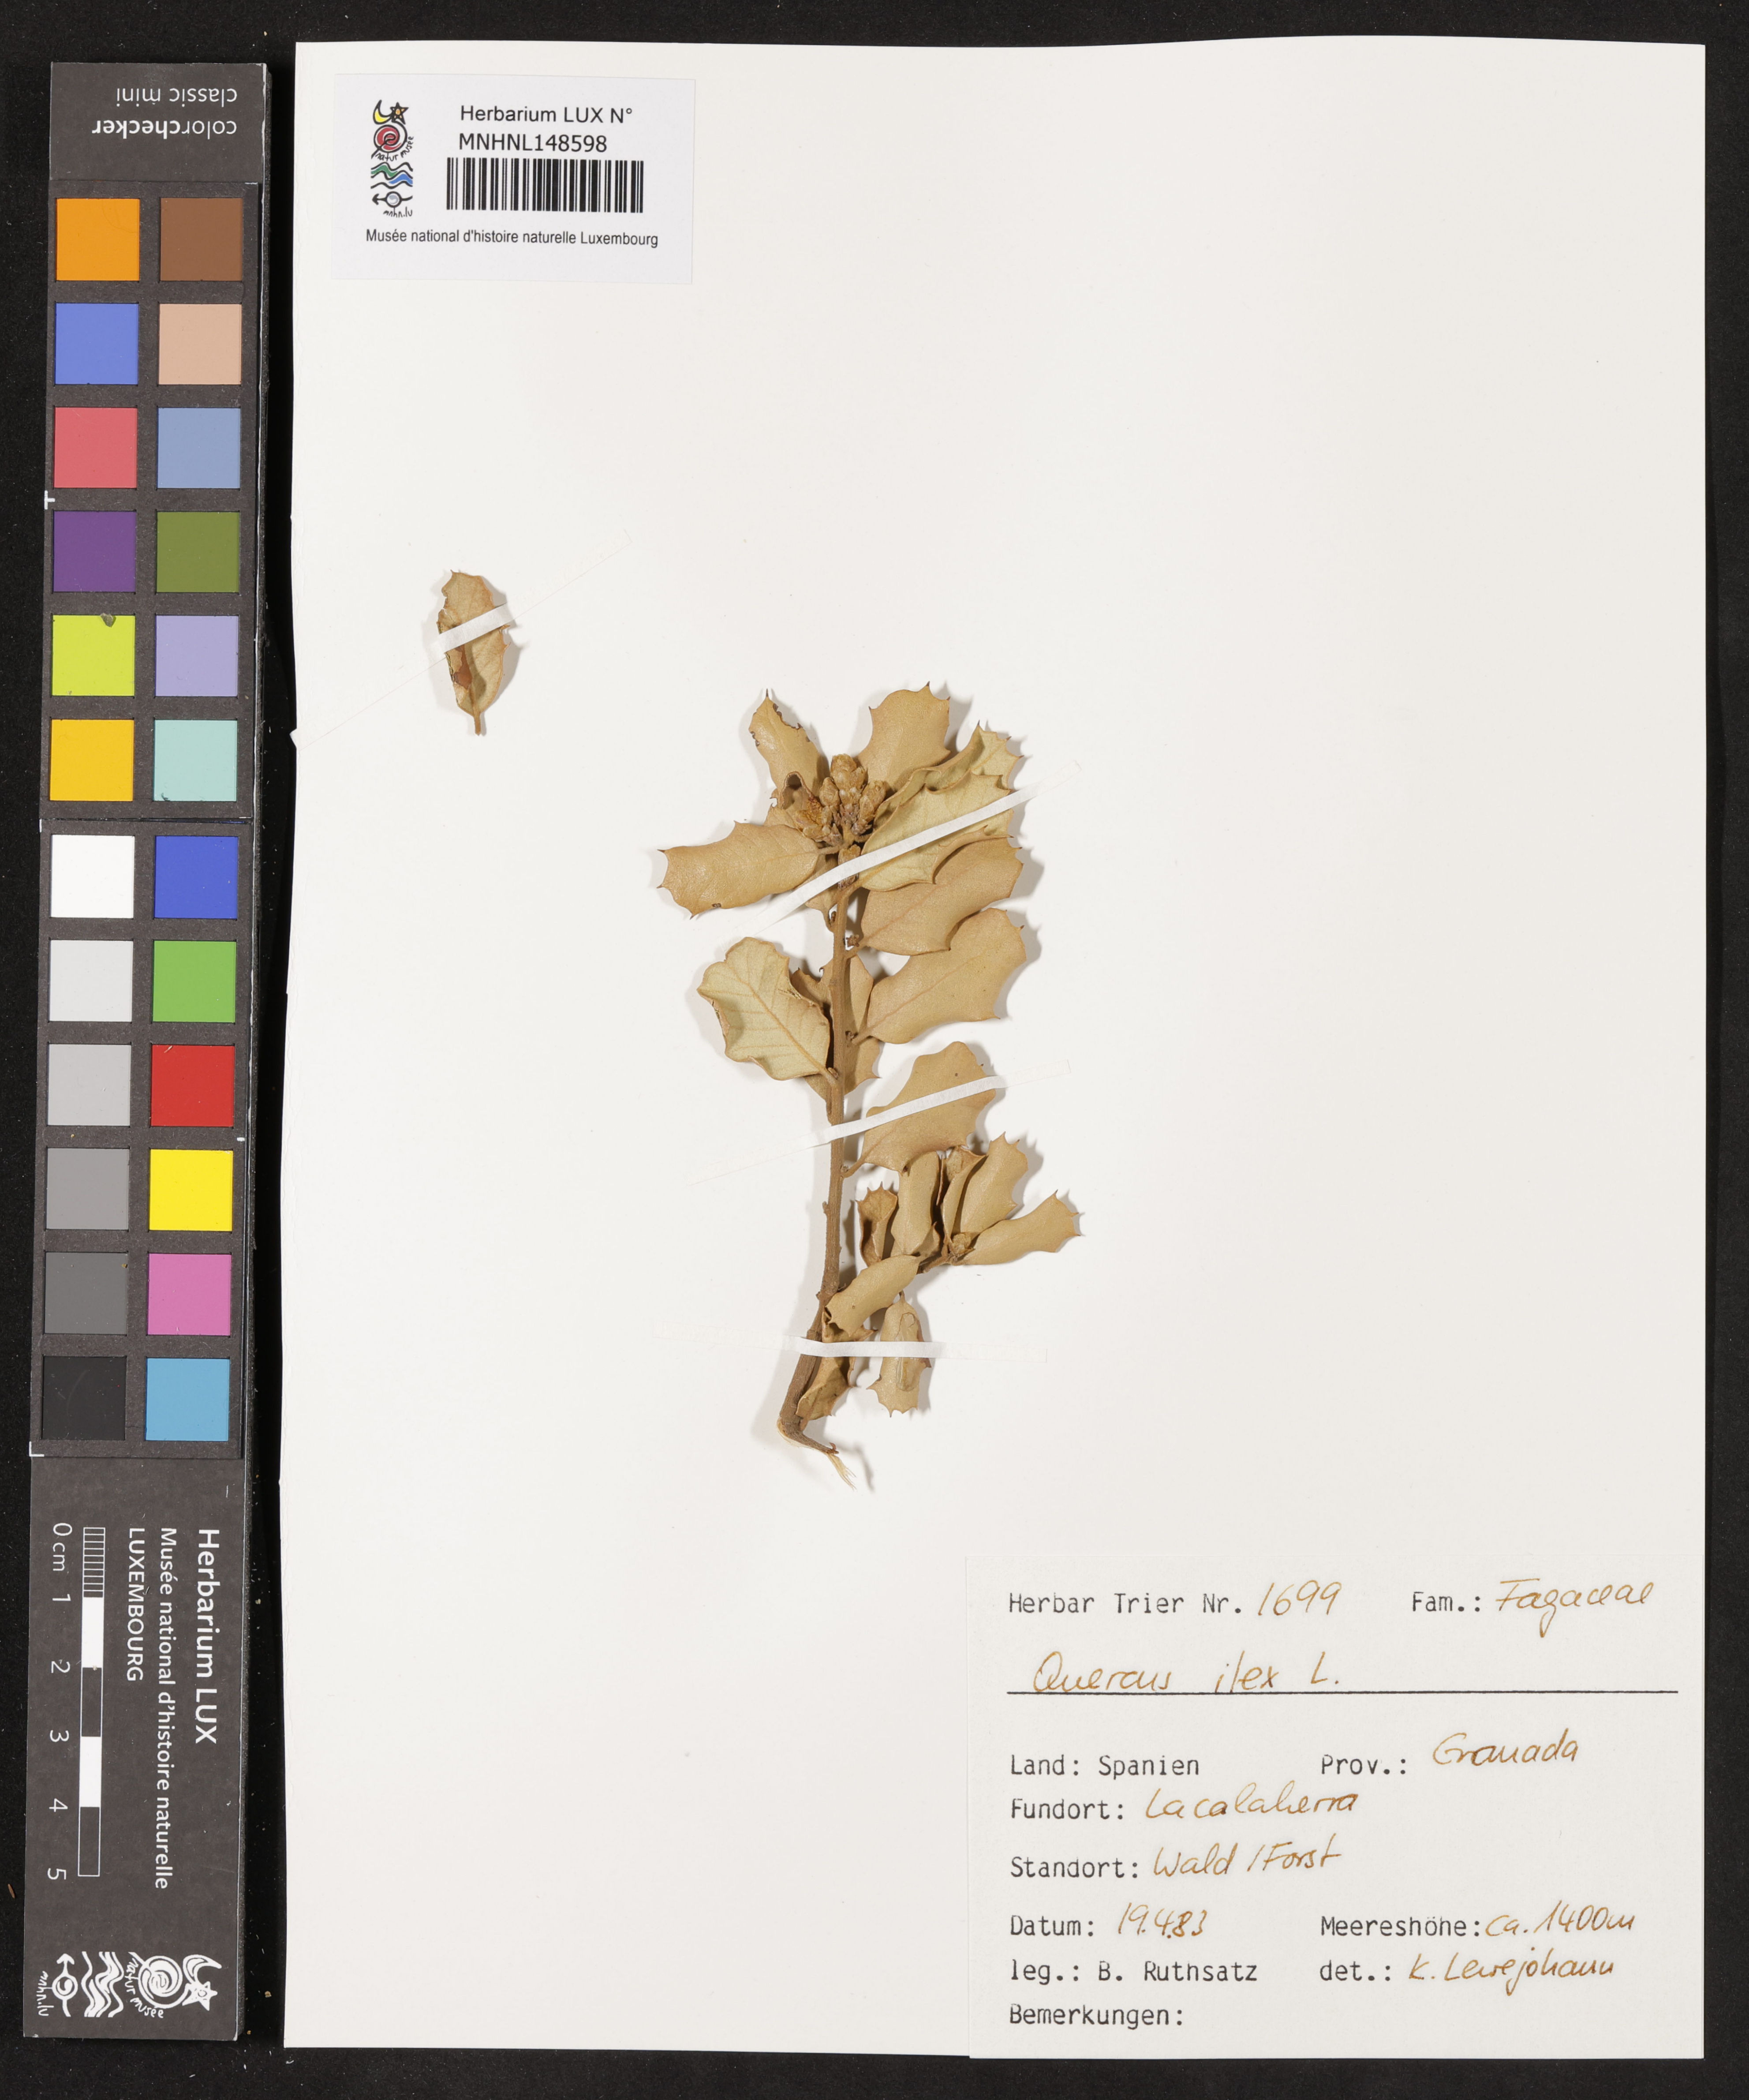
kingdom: Plantae
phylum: Tracheophyta
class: Magnoliopsida
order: Fagales
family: Fagaceae
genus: Quercus
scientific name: Quercus ilex
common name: Evergreen oak
